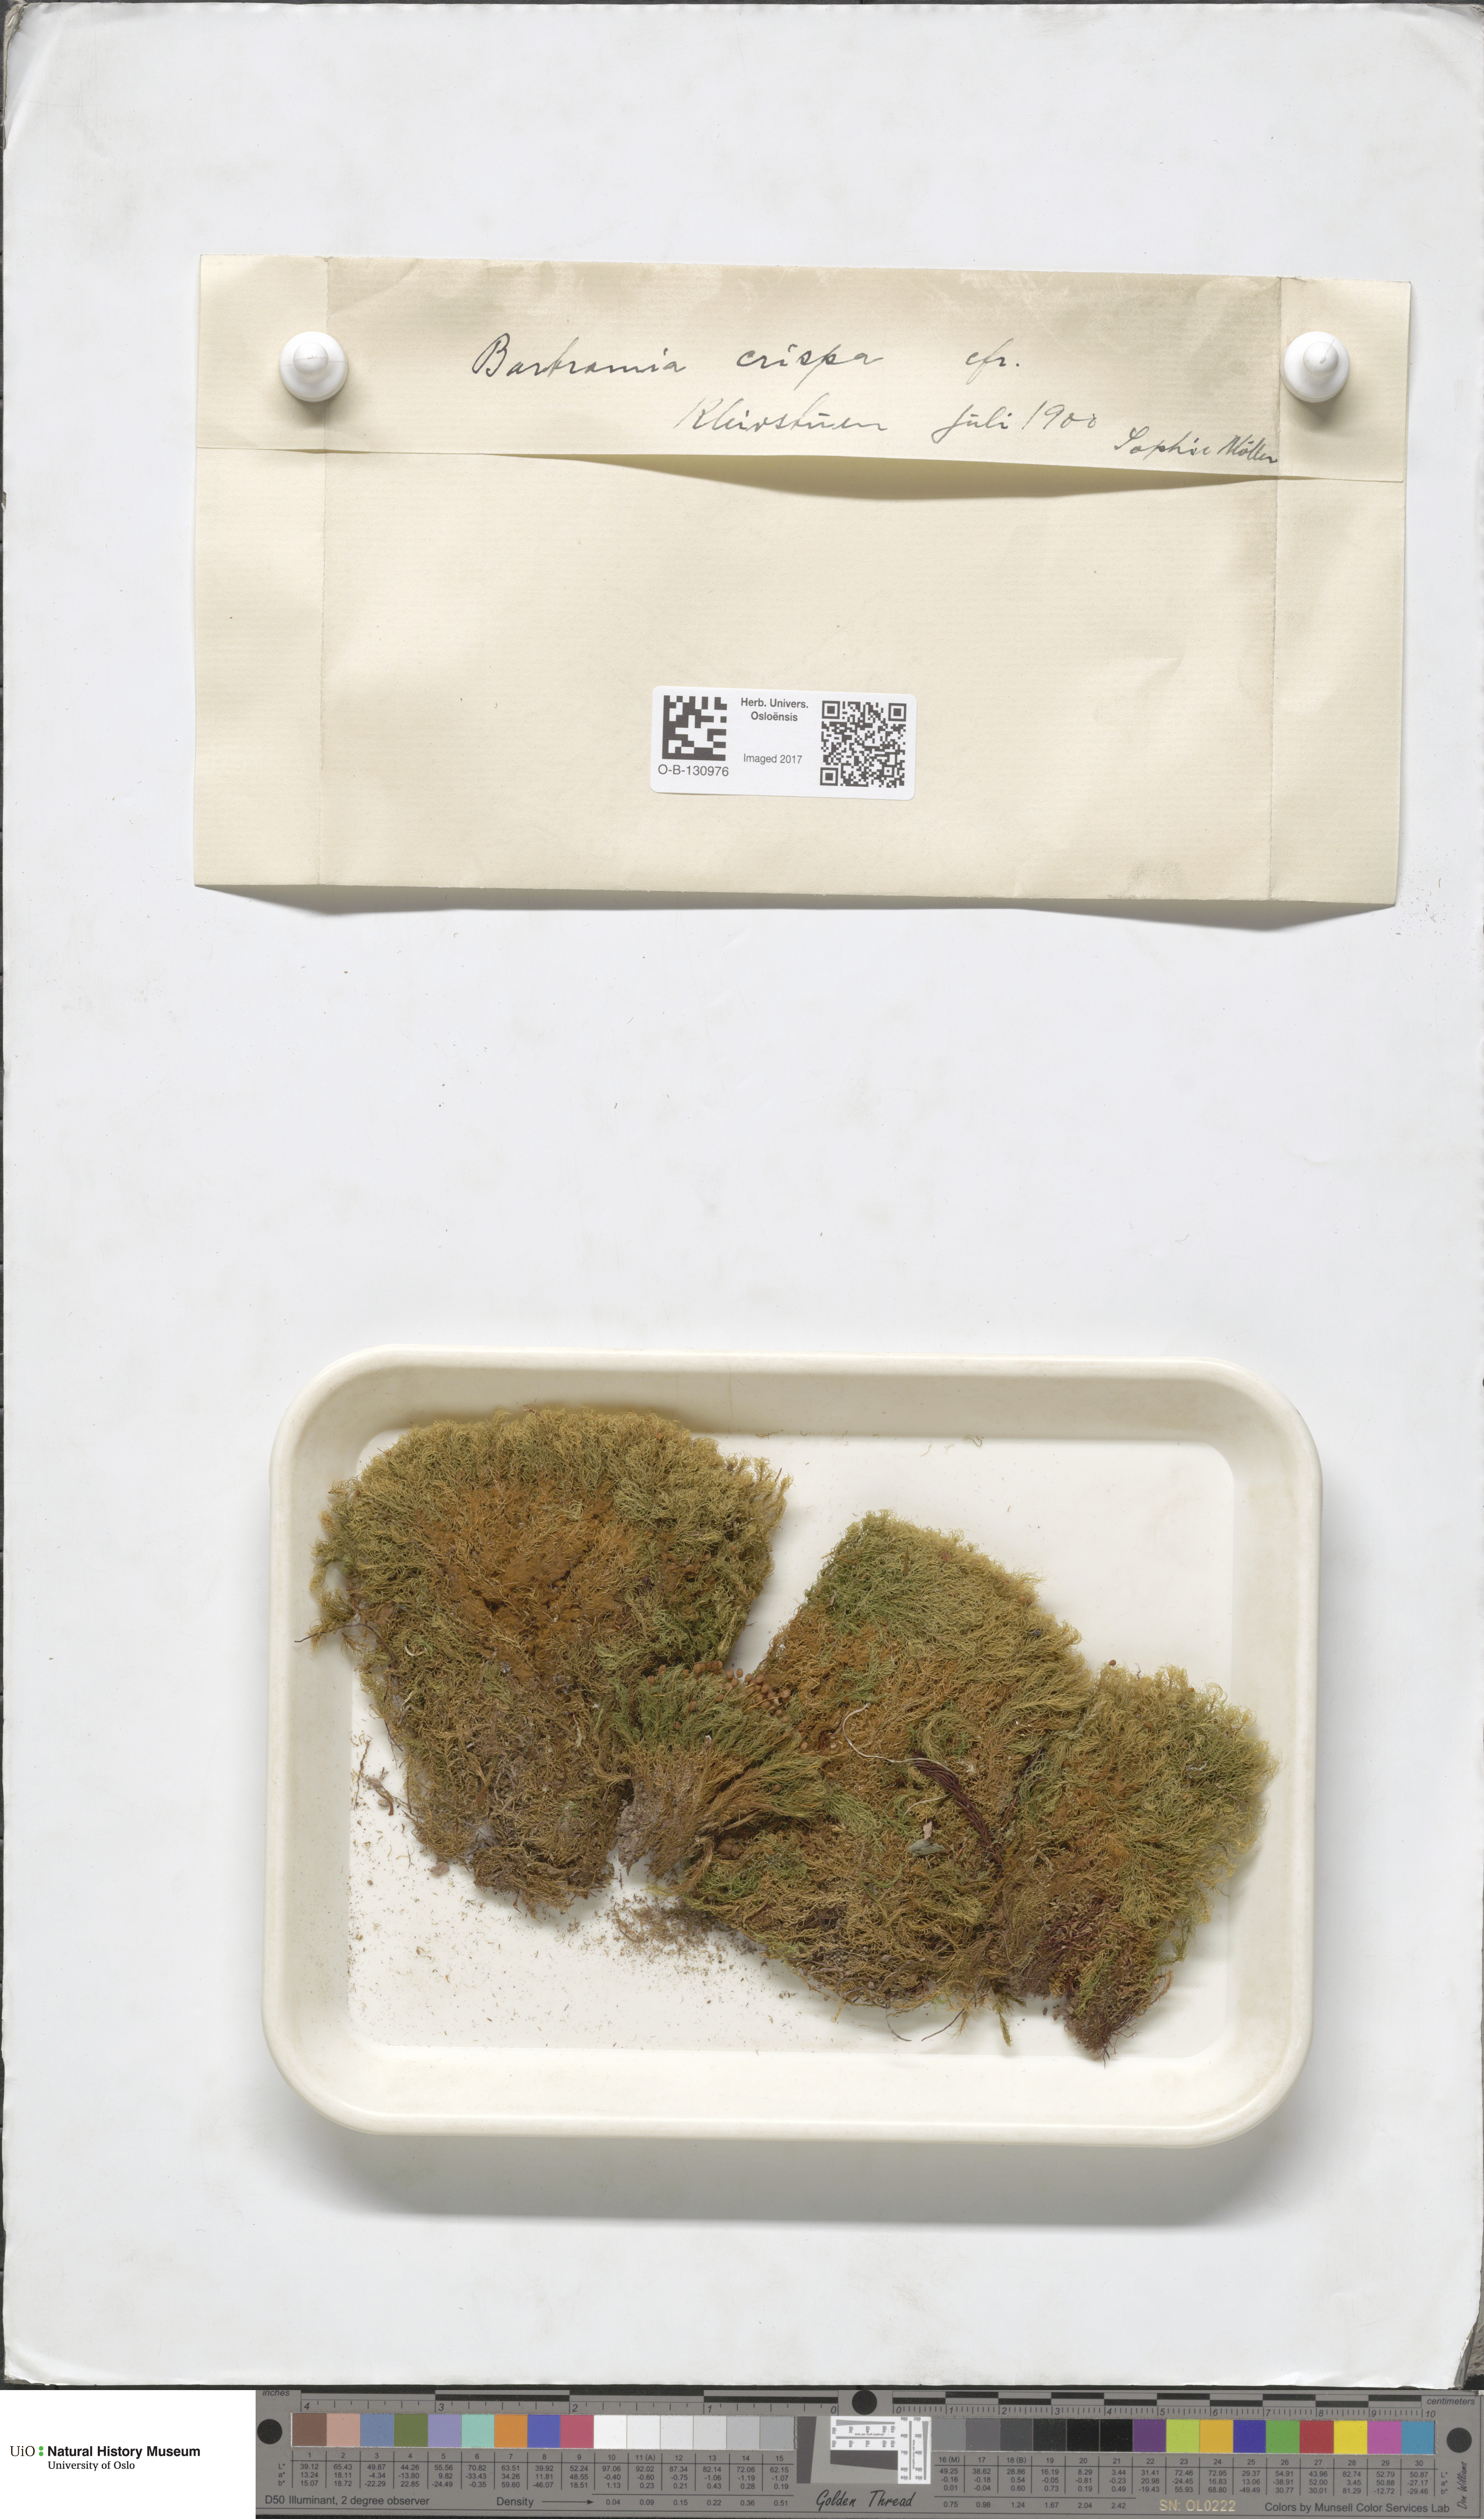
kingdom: Plantae
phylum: Bryophyta
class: Bryopsida
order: Bartramiales
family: Bartramiaceae
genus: Bartramia
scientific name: Bartramia pomiformis
